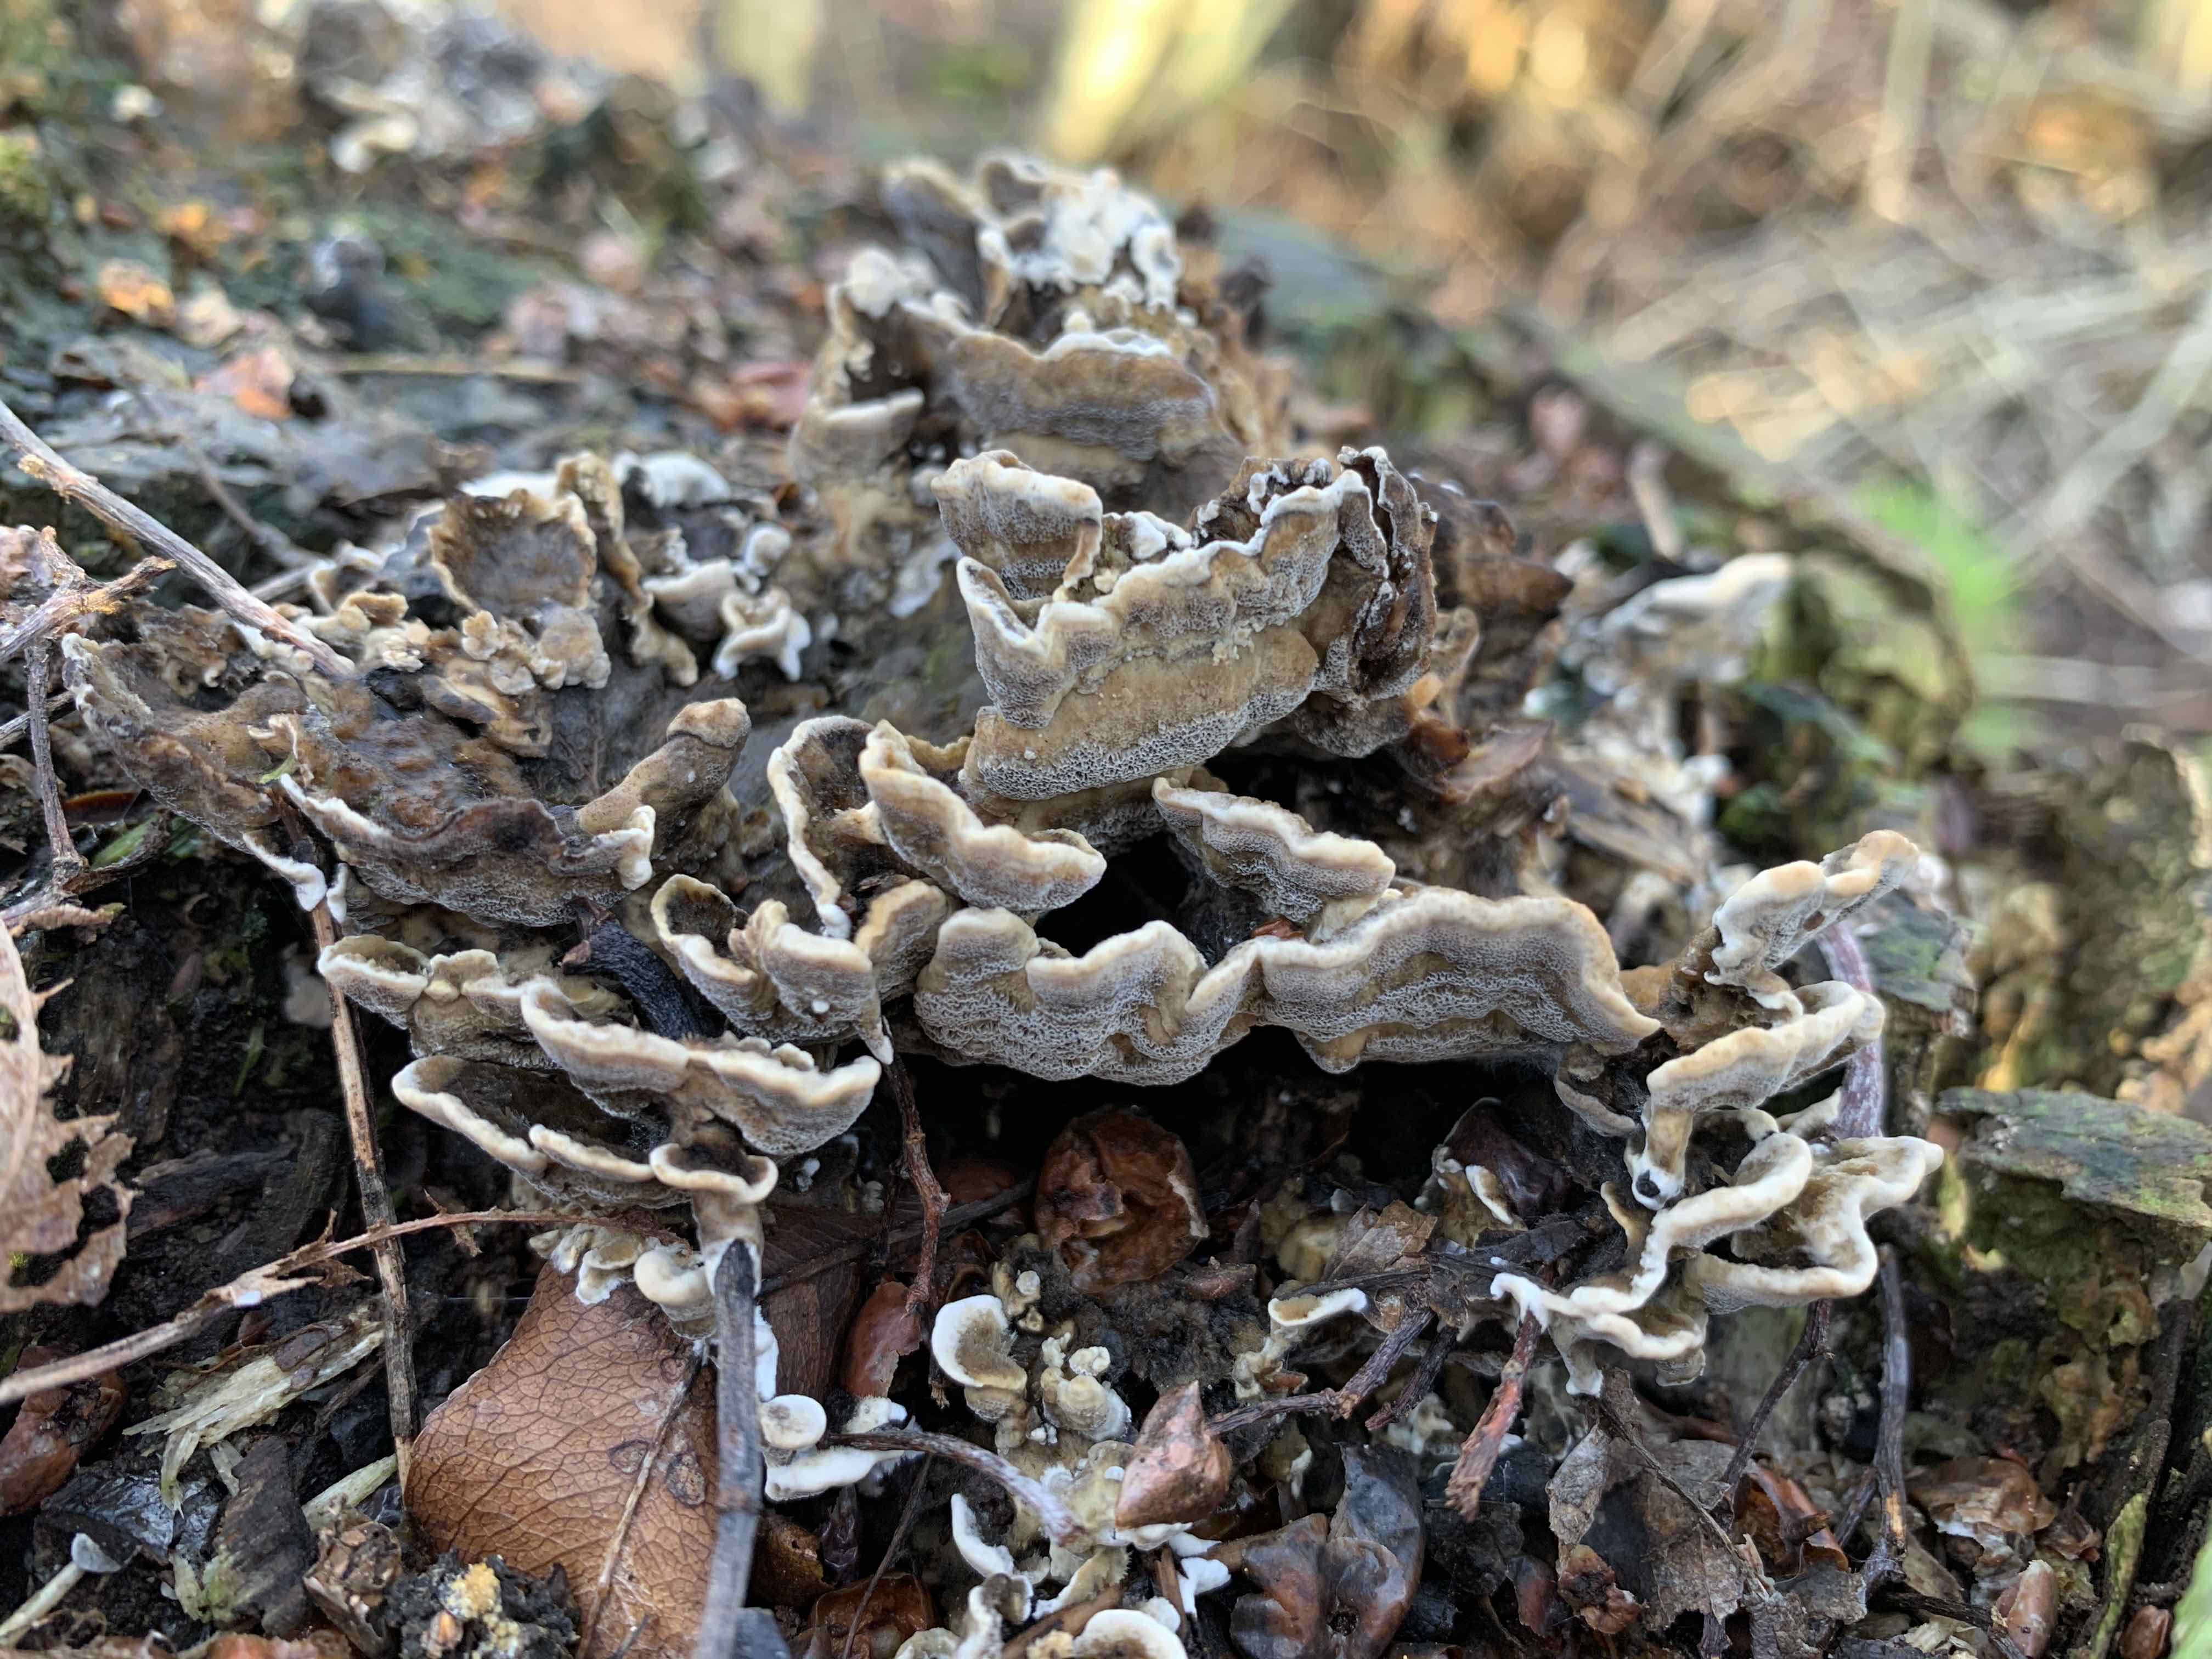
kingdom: Fungi
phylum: Basidiomycota
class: Agaricomycetes
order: Polyporales
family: Phanerochaetaceae
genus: Bjerkandera
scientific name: Bjerkandera adusta
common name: sveden sodporesvamp
